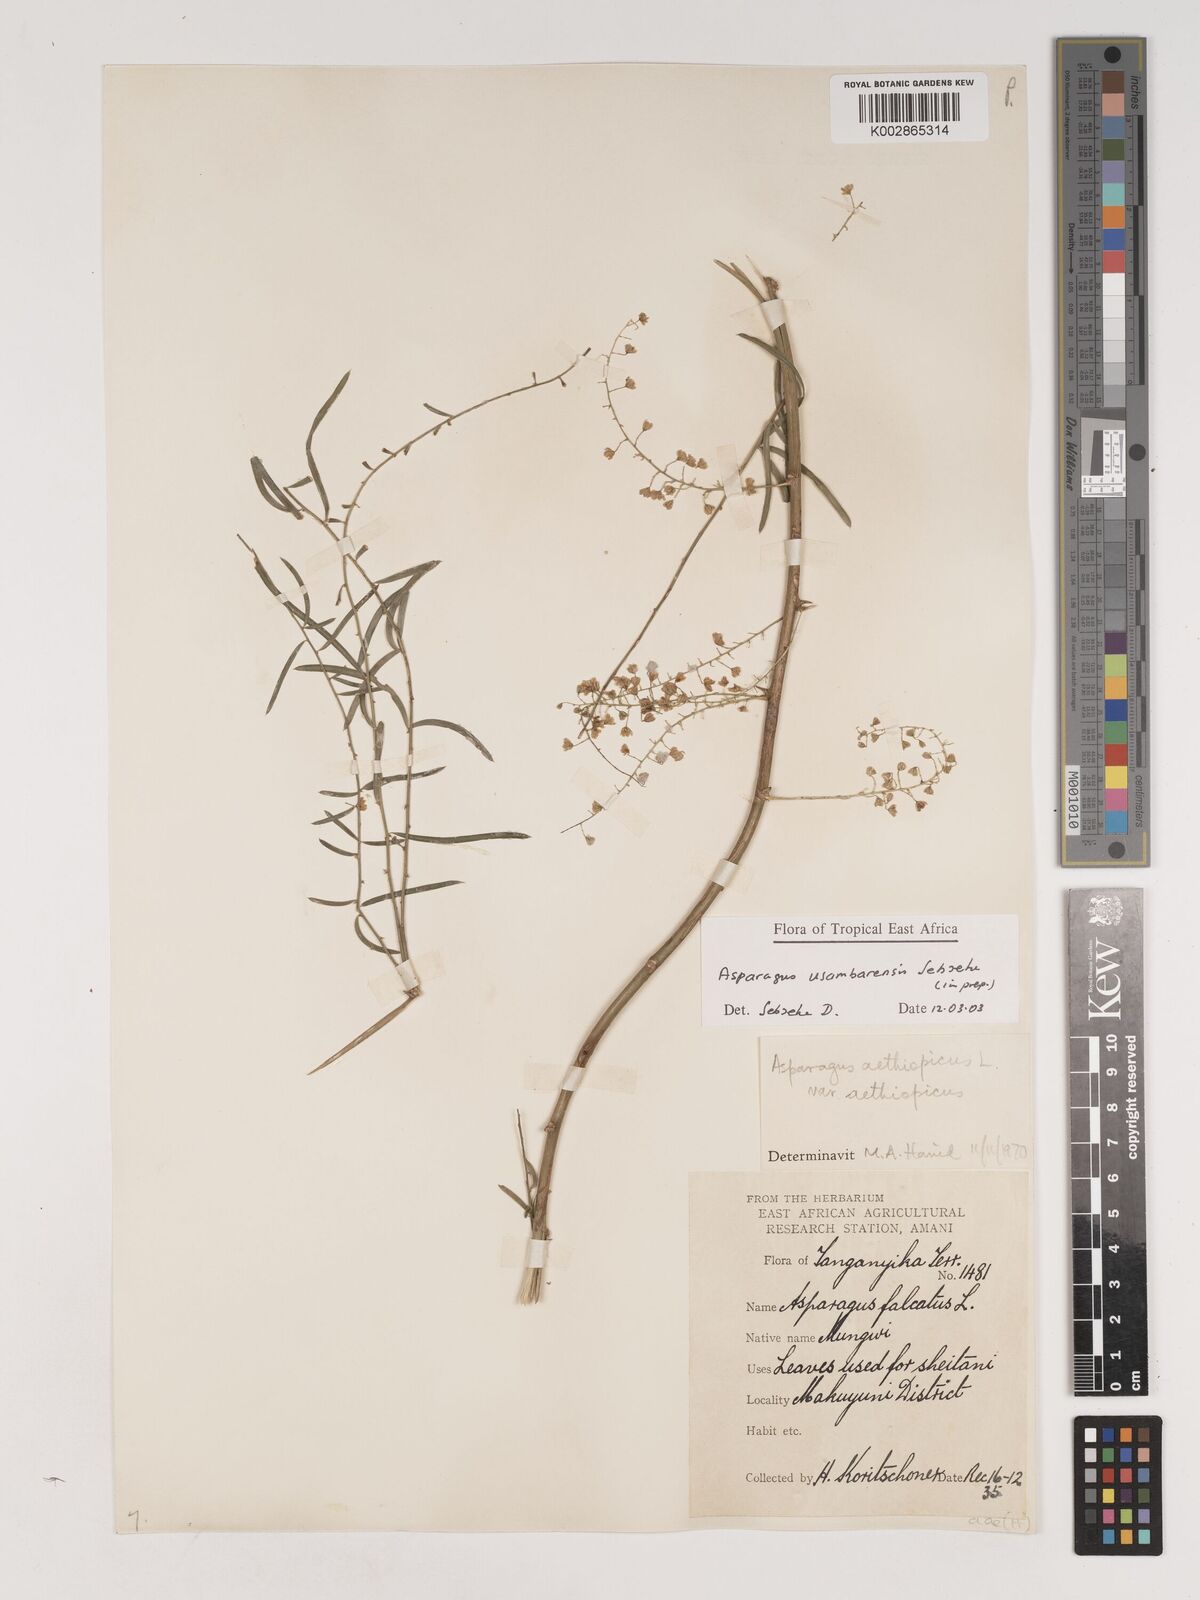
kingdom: Plantae
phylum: Tracheophyta
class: Liliopsida
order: Asparagales
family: Asparagaceae
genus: Asparagus
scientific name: Asparagus usambarensis
